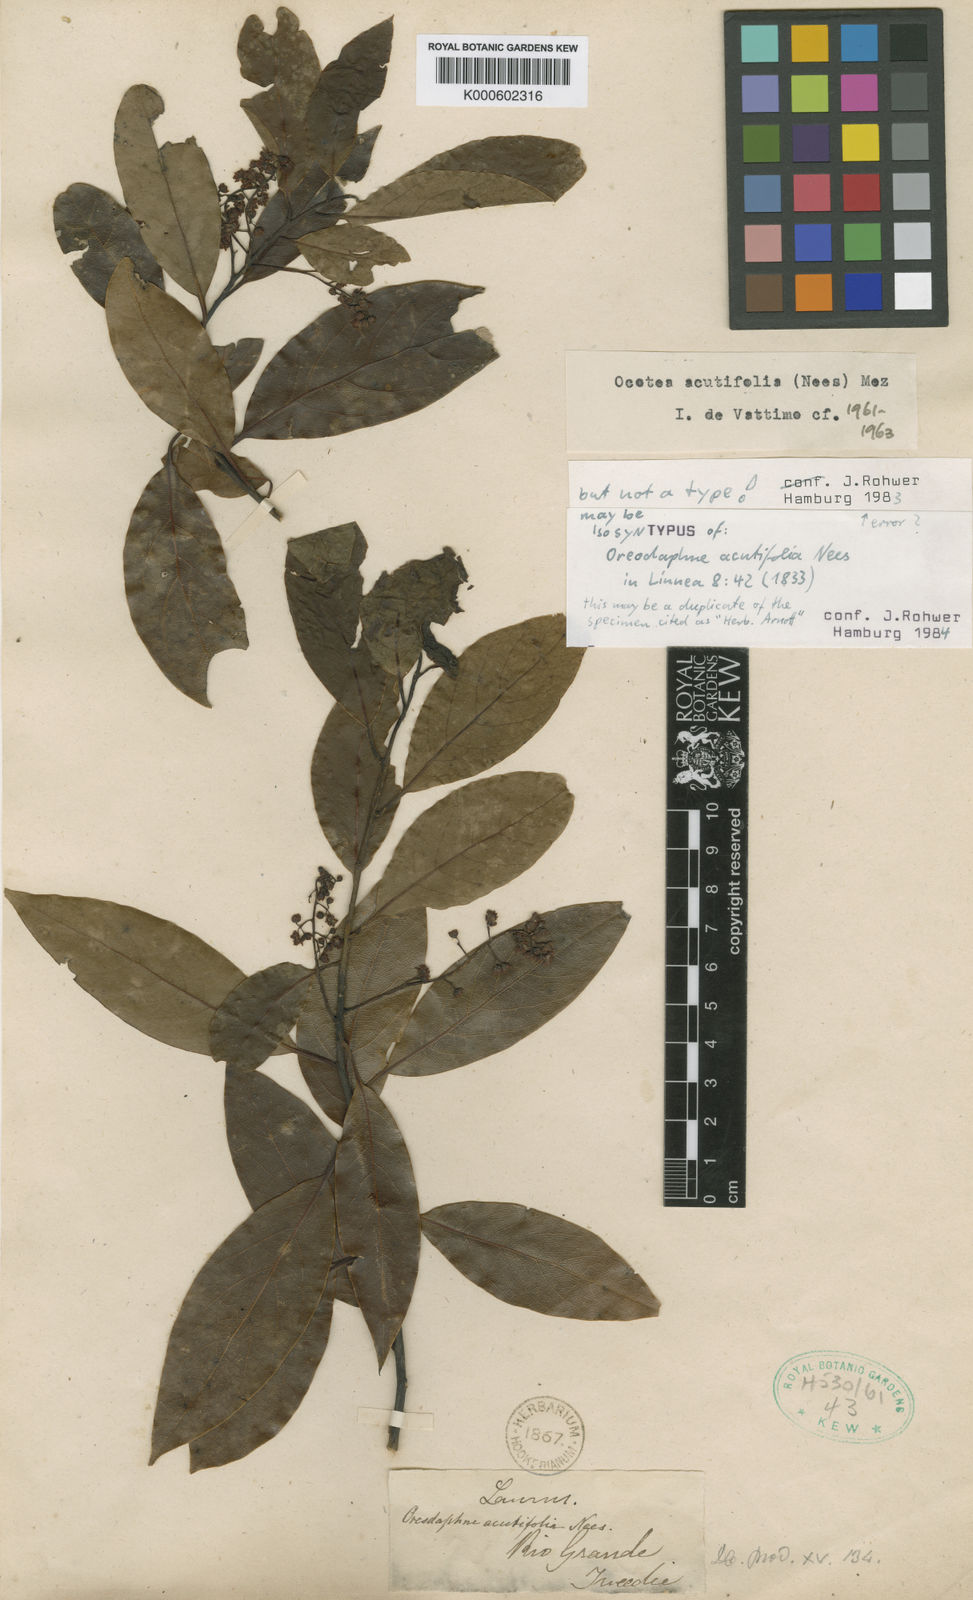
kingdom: Plantae
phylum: Tracheophyta
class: Magnoliopsida
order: Laurales
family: Lauraceae
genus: Ocotea
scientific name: Ocotea acutifolia
